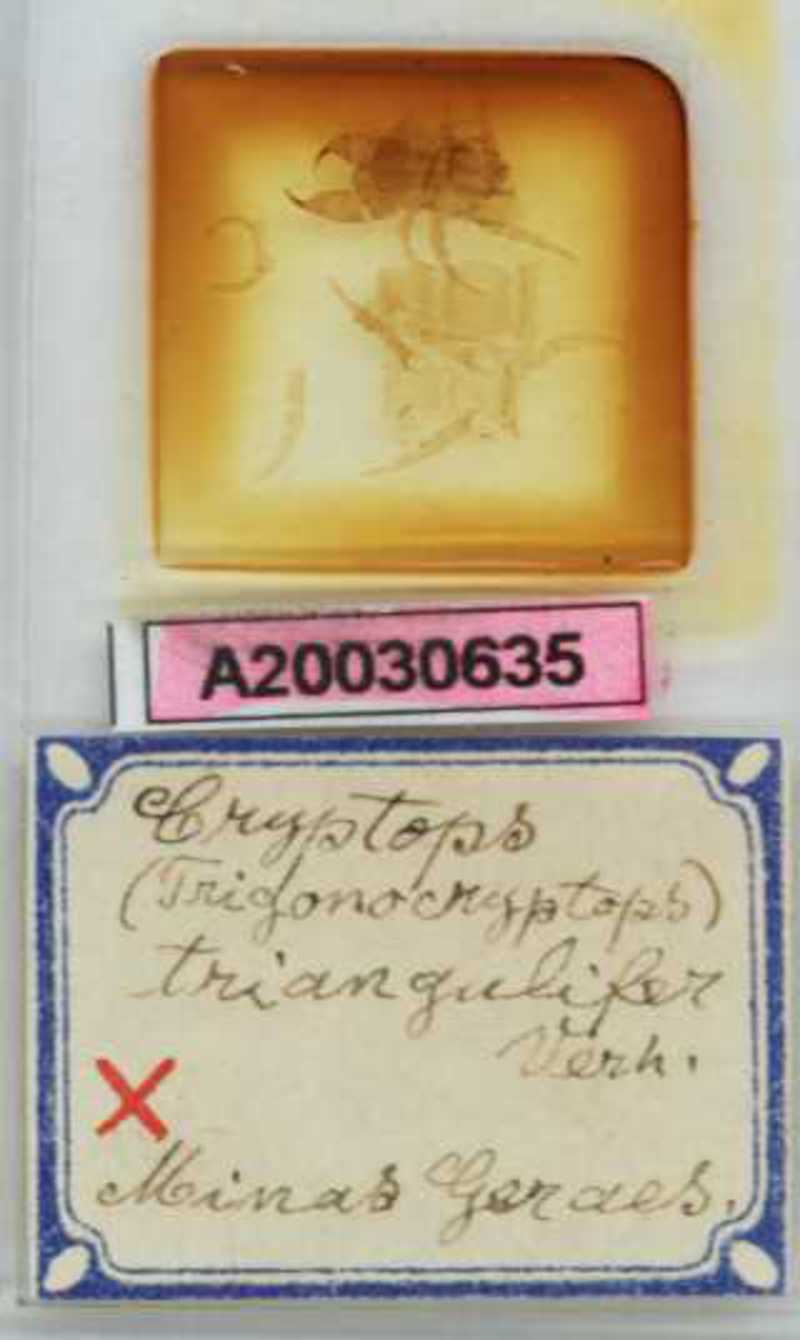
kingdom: Animalia
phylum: Arthropoda
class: Chilopoda
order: Scolopendromorpha
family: Cryptopidae
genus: Cryptops
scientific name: Cryptops triangulifer
